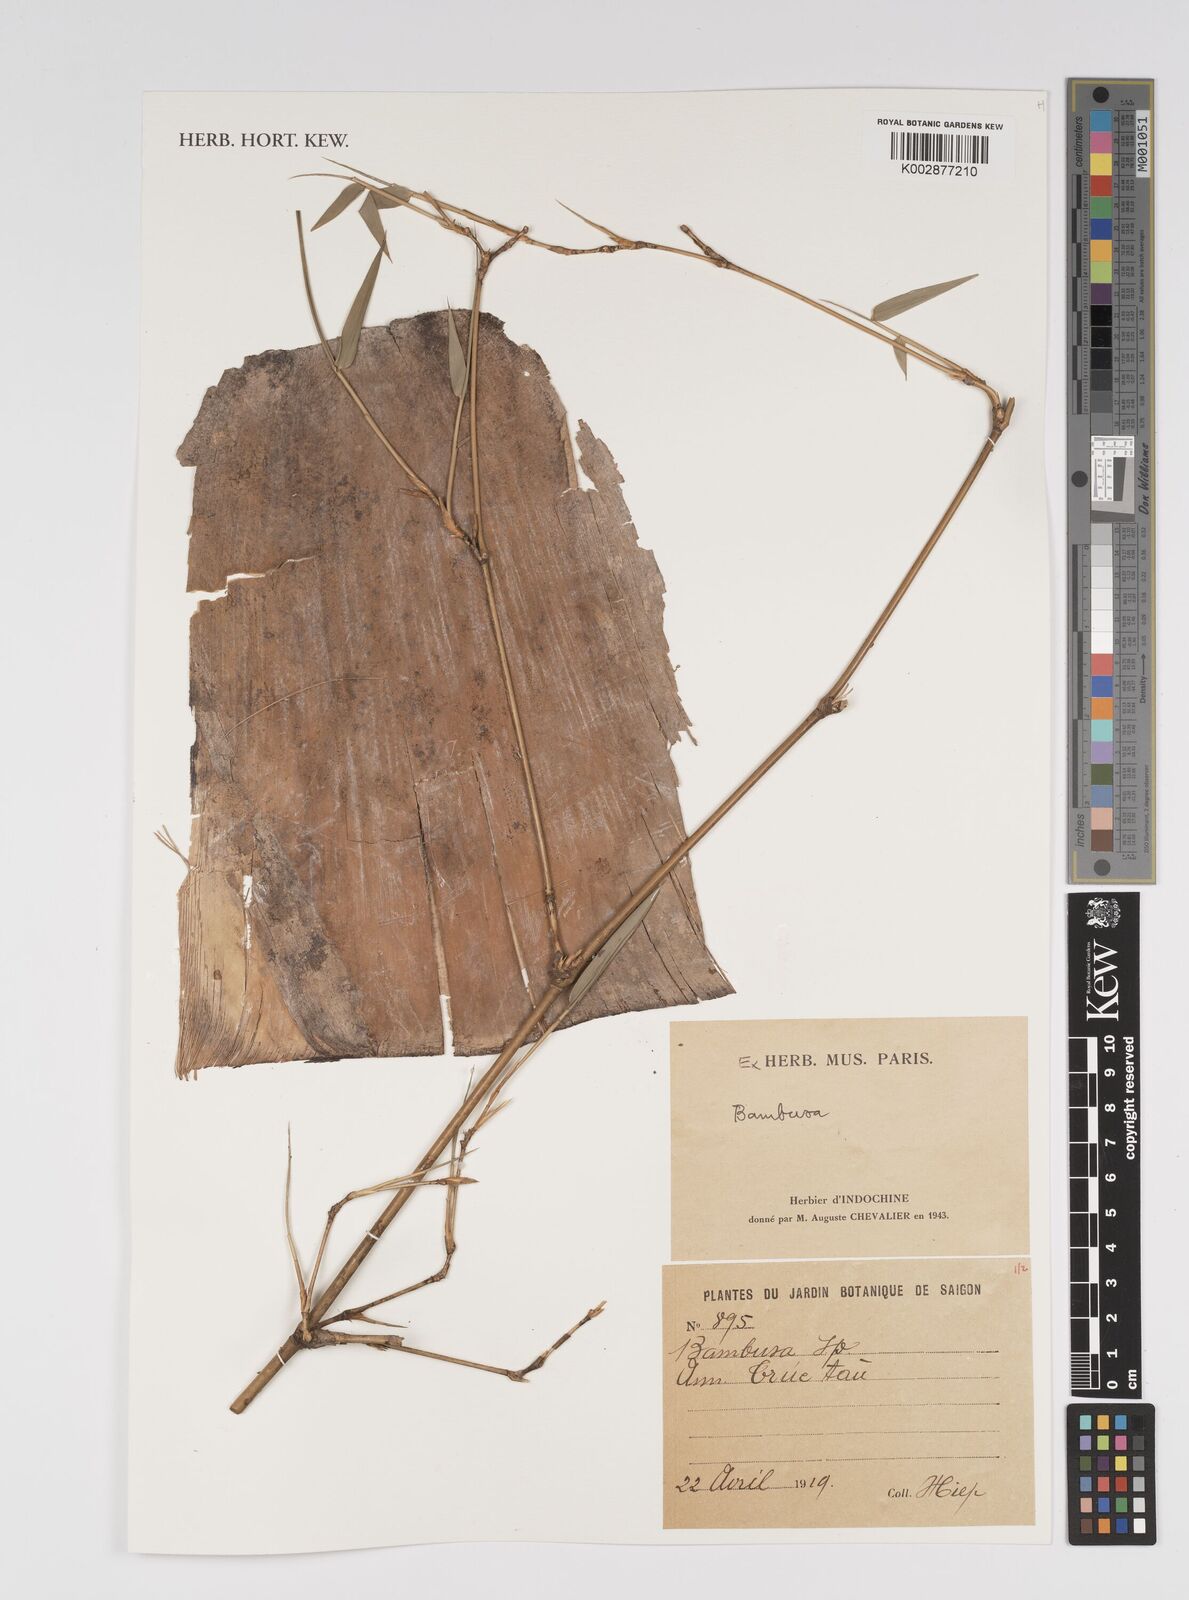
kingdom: Plantae
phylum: Tracheophyta
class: Liliopsida
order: Poales
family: Poaceae
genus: Bambusa
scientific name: Bambusa
